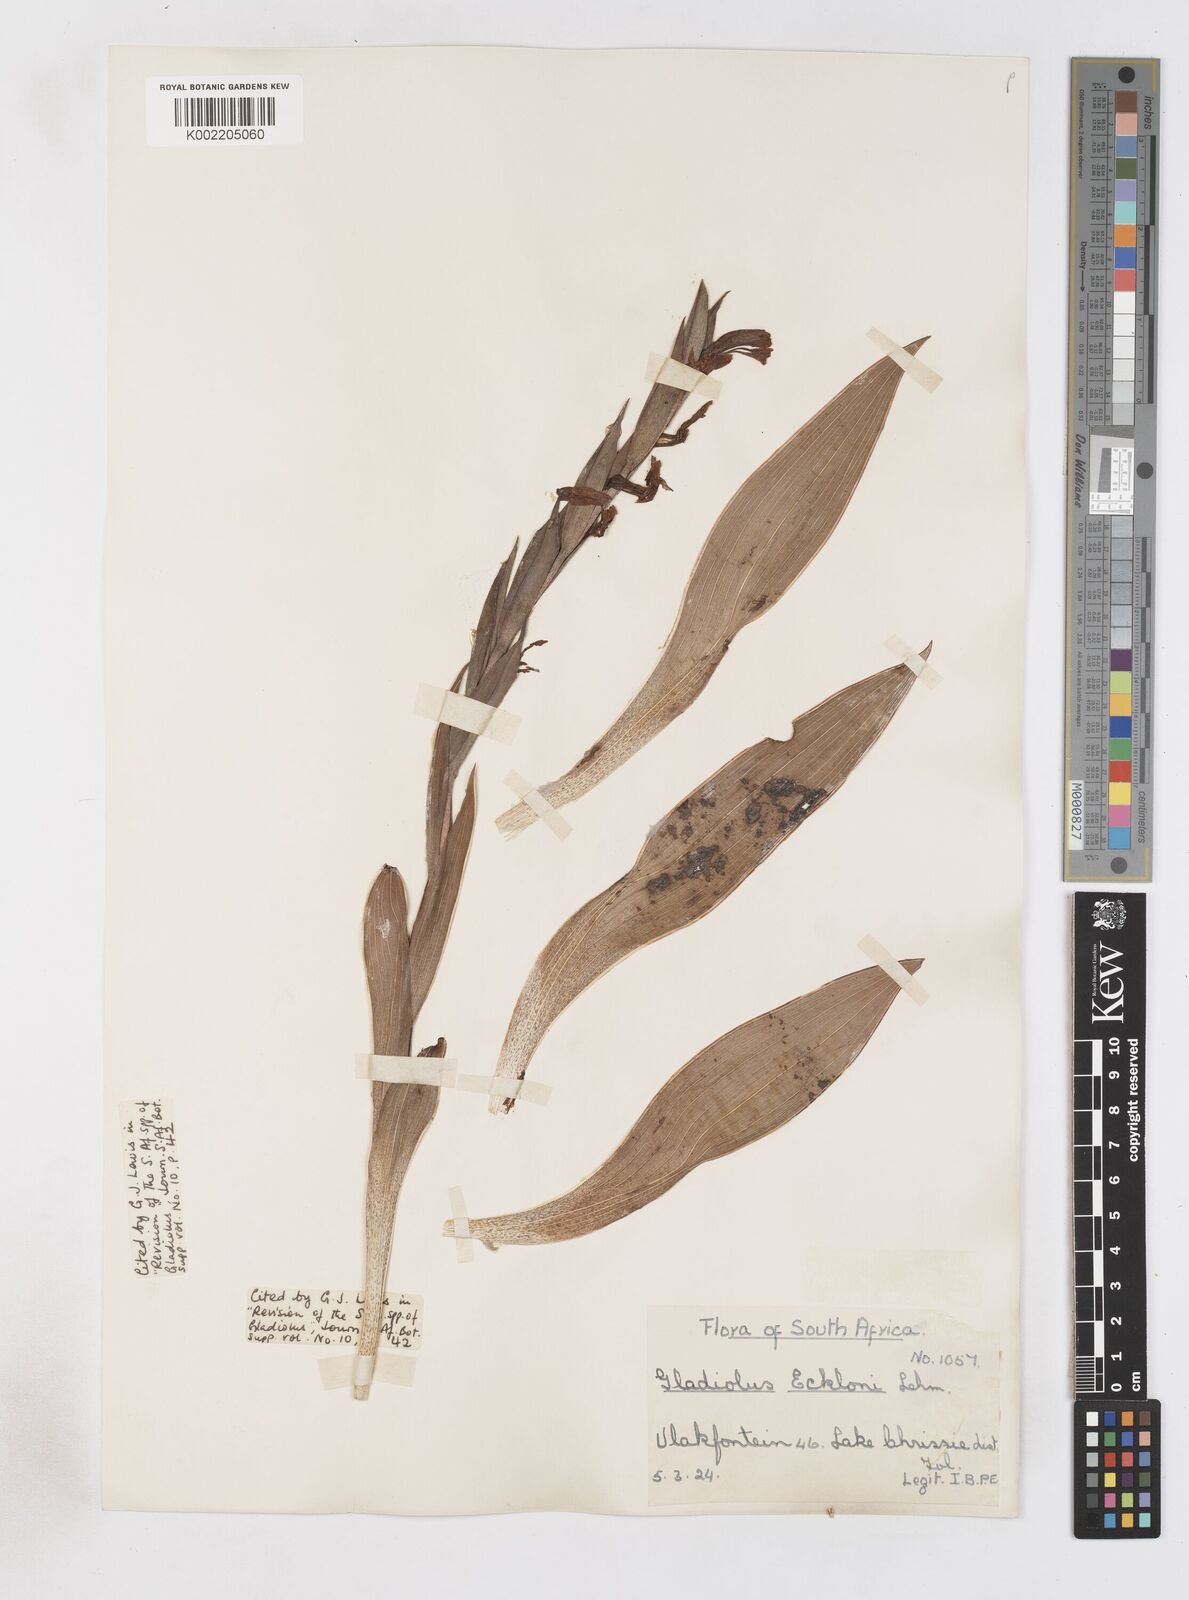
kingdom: Plantae
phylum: Tracheophyta
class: Liliopsida
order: Asparagales
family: Iridaceae
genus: Gladiolus
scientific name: Gladiolus ecklonii
